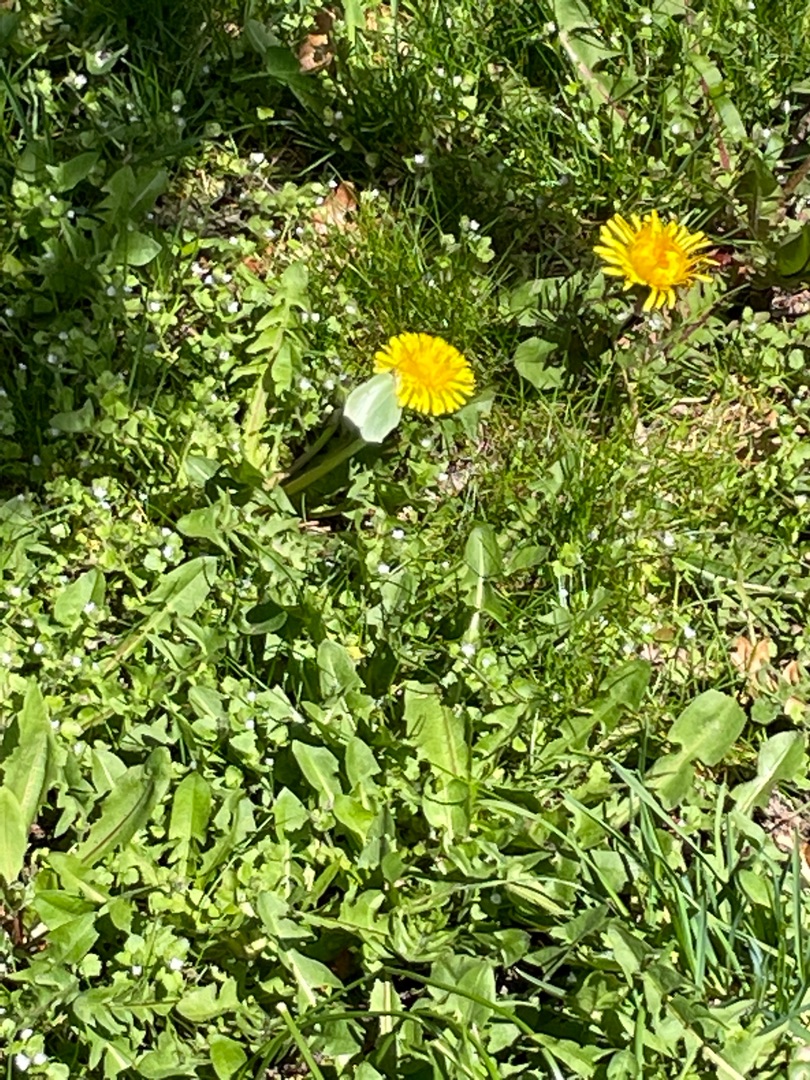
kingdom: Animalia
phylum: Arthropoda
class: Insecta
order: Lepidoptera
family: Pieridae
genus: Gonepteryx
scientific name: Gonepteryx rhamni
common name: Citronsommerfugl
